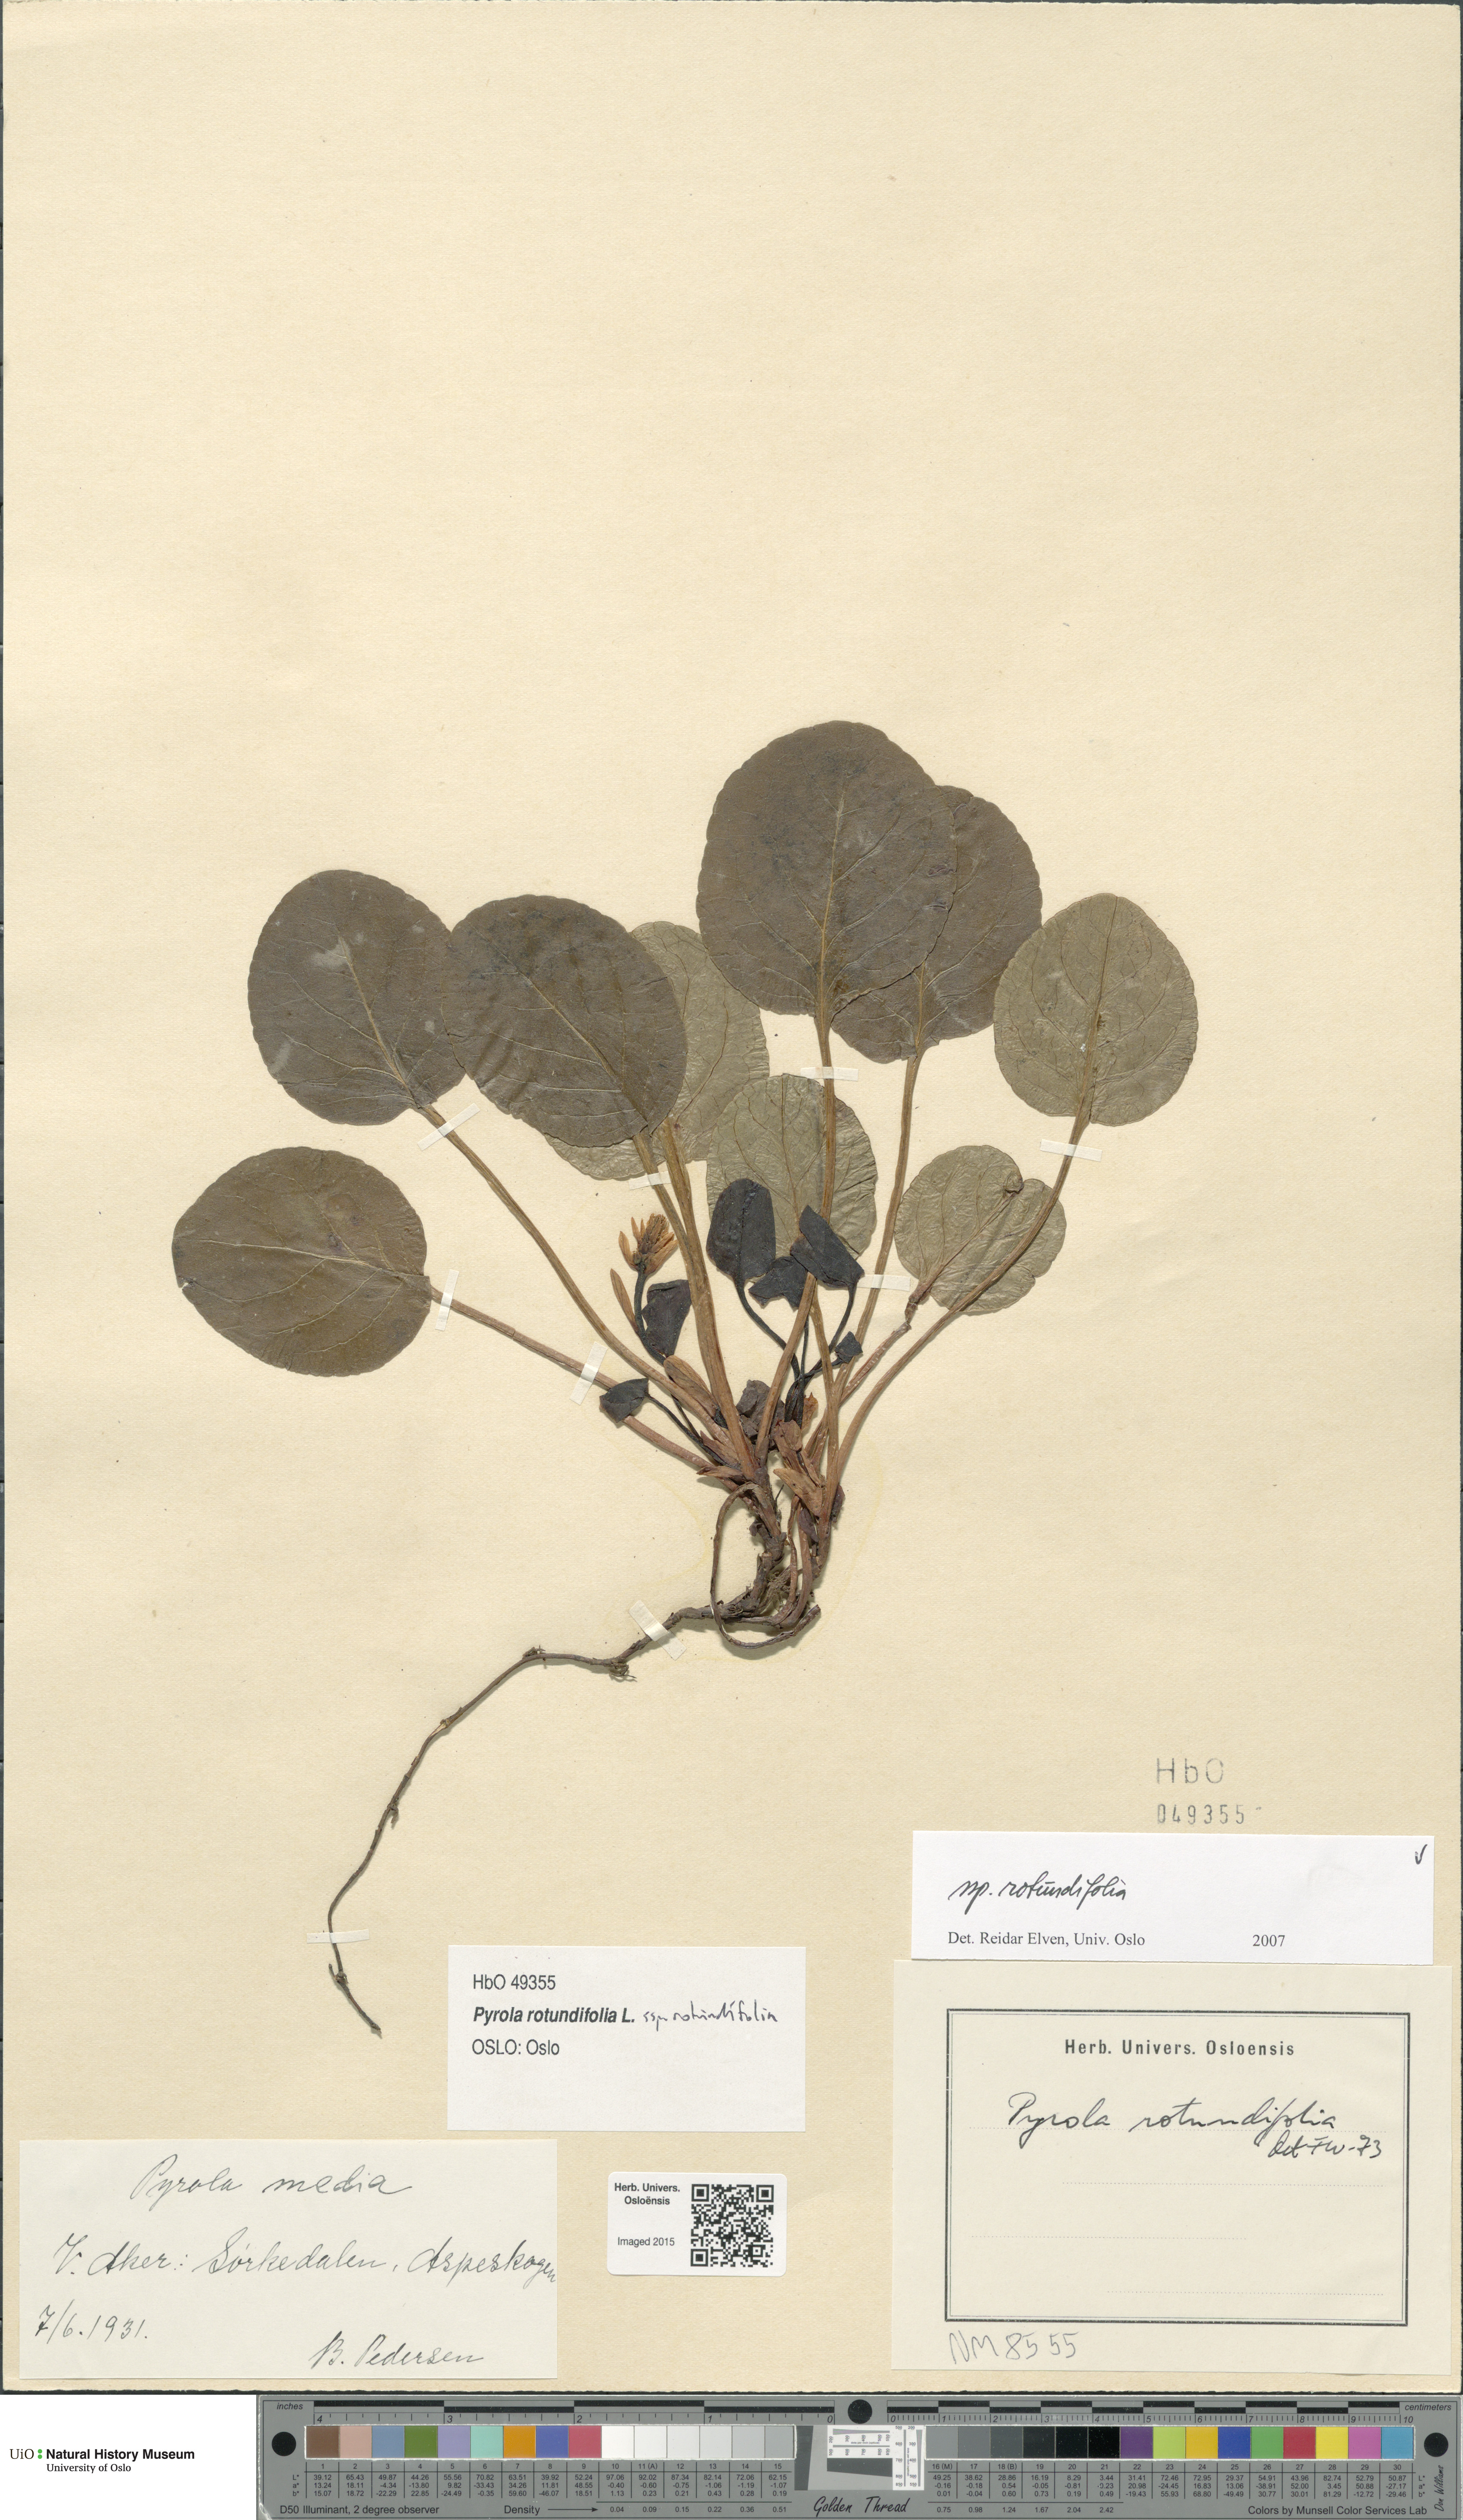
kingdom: Plantae
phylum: Tracheophyta
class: Magnoliopsida
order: Ericales
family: Ericaceae
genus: Pyrola
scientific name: Pyrola rotundifolia
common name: Round-leaved wintergreen
